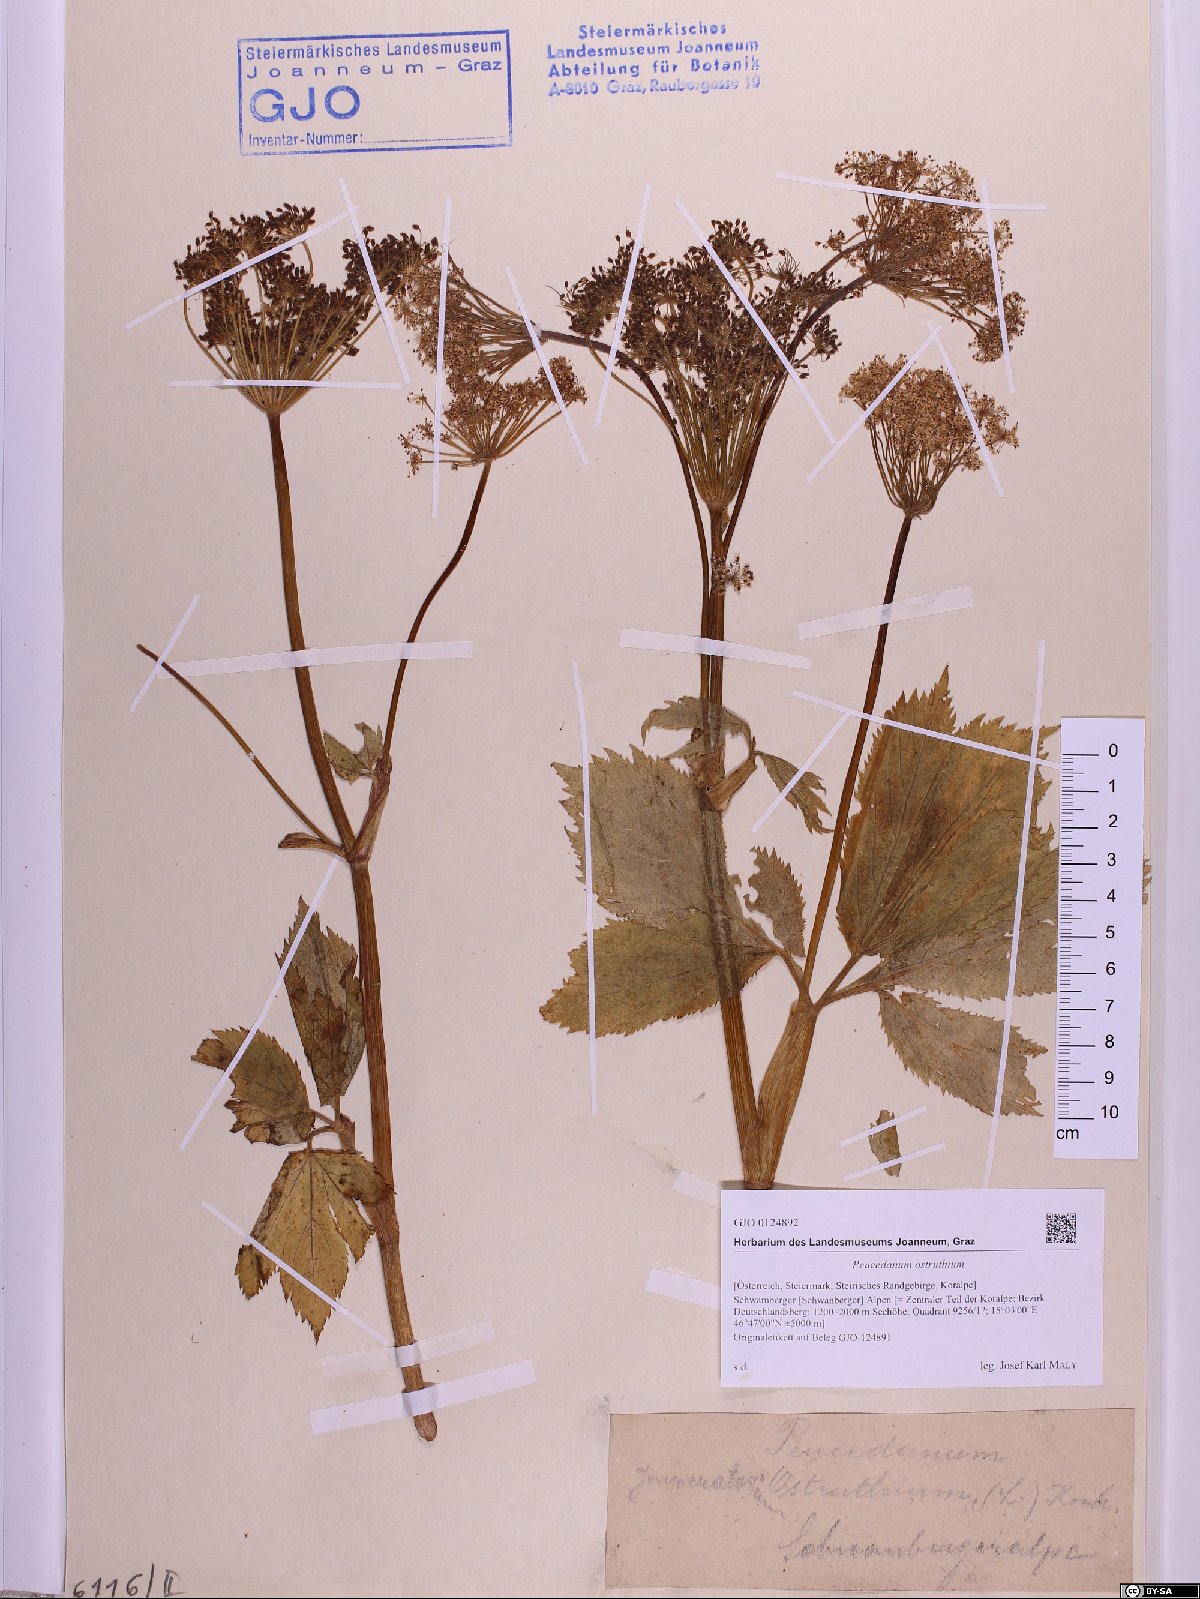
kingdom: Plantae
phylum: Tracheophyta
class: Magnoliopsida
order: Apiales
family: Apiaceae
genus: Imperatoria
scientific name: Imperatoria ostruthium
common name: Masterwort
